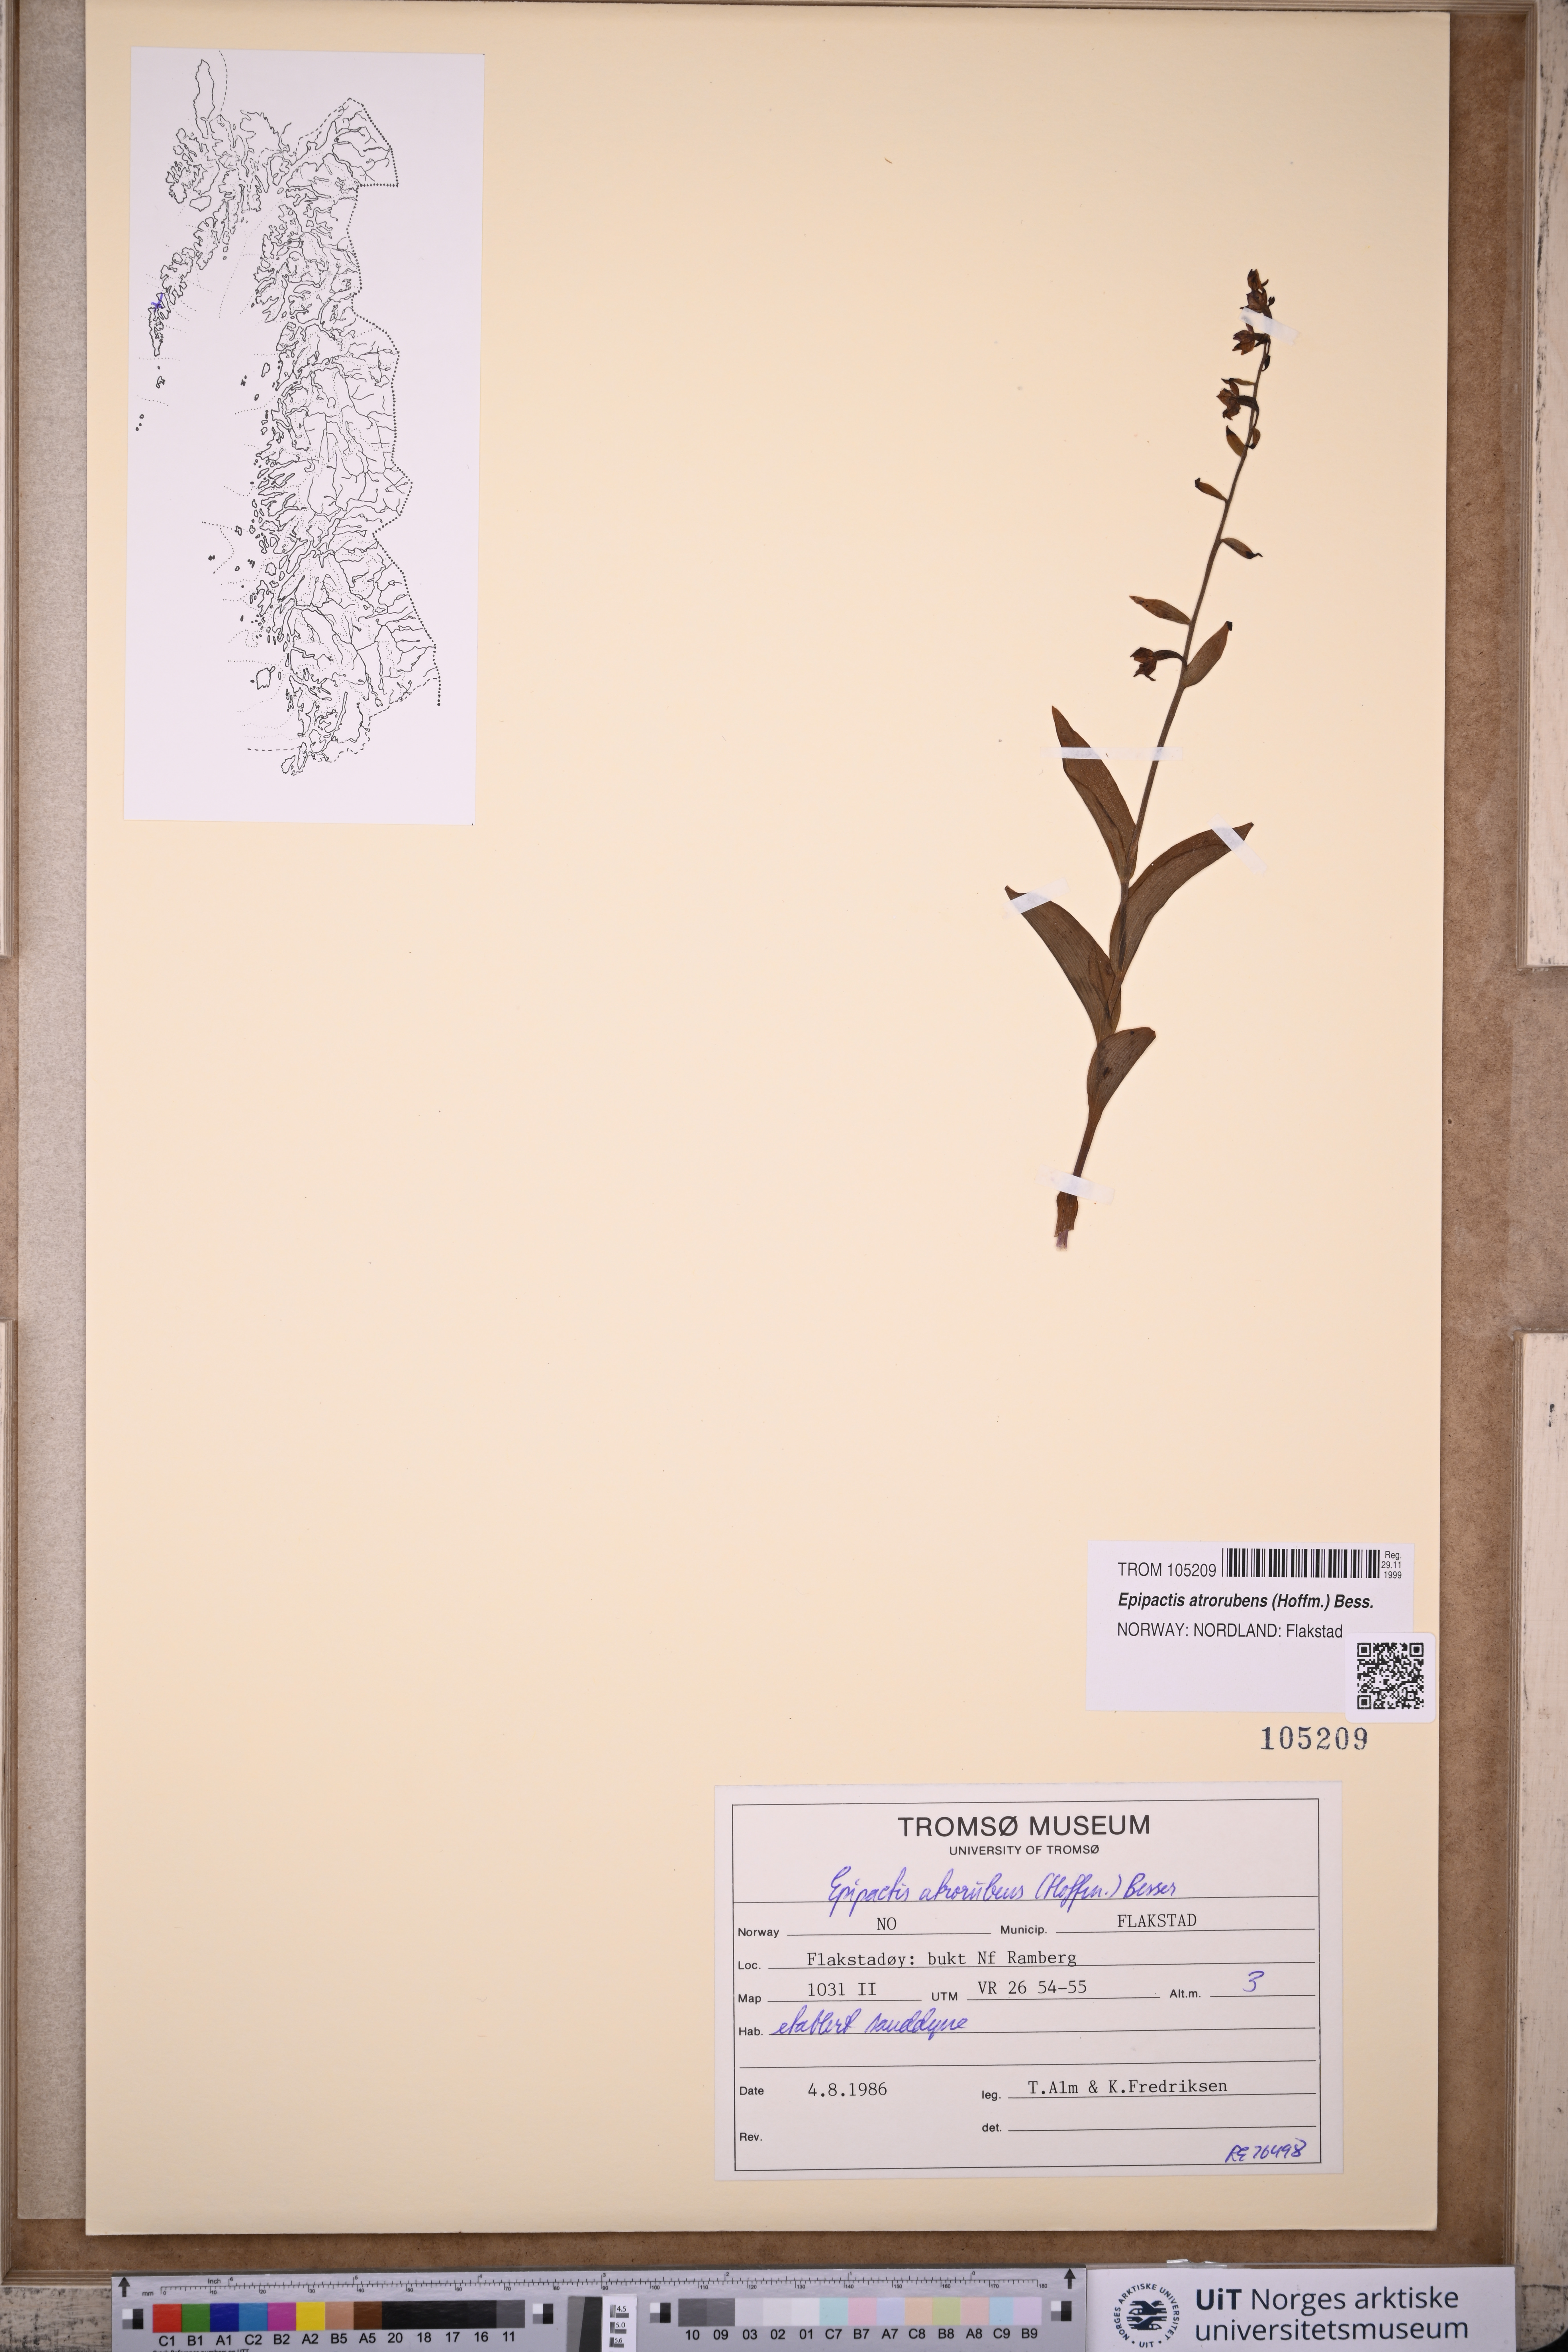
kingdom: Plantae
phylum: Tracheophyta
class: Liliopsida
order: Asparagales
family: Orchidaceae
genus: Epipactis
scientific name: Epipactis atrorubens
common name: Dark-red helleborine
